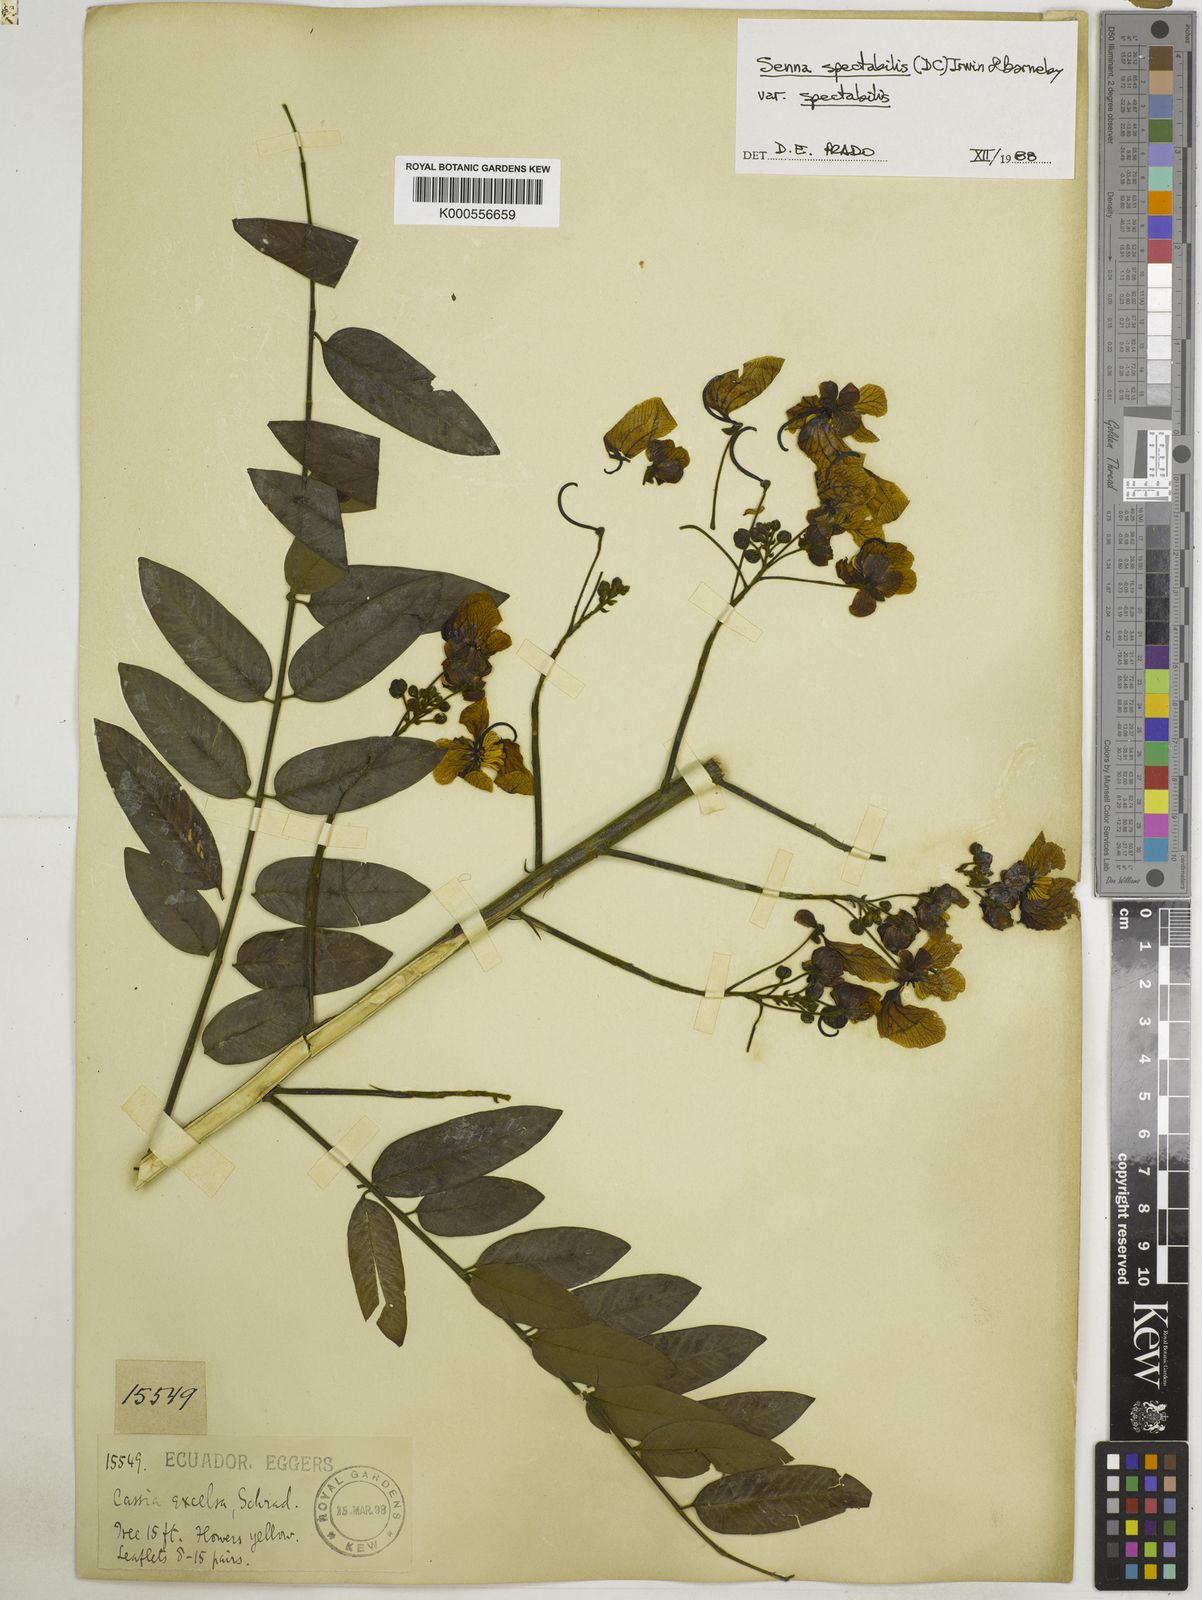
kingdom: Plantae
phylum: Tracheophyta
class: Magnoliopsida
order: Fabales
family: Fabaceae
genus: Senna
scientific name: Senna spectabilis
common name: Casia amarilla
